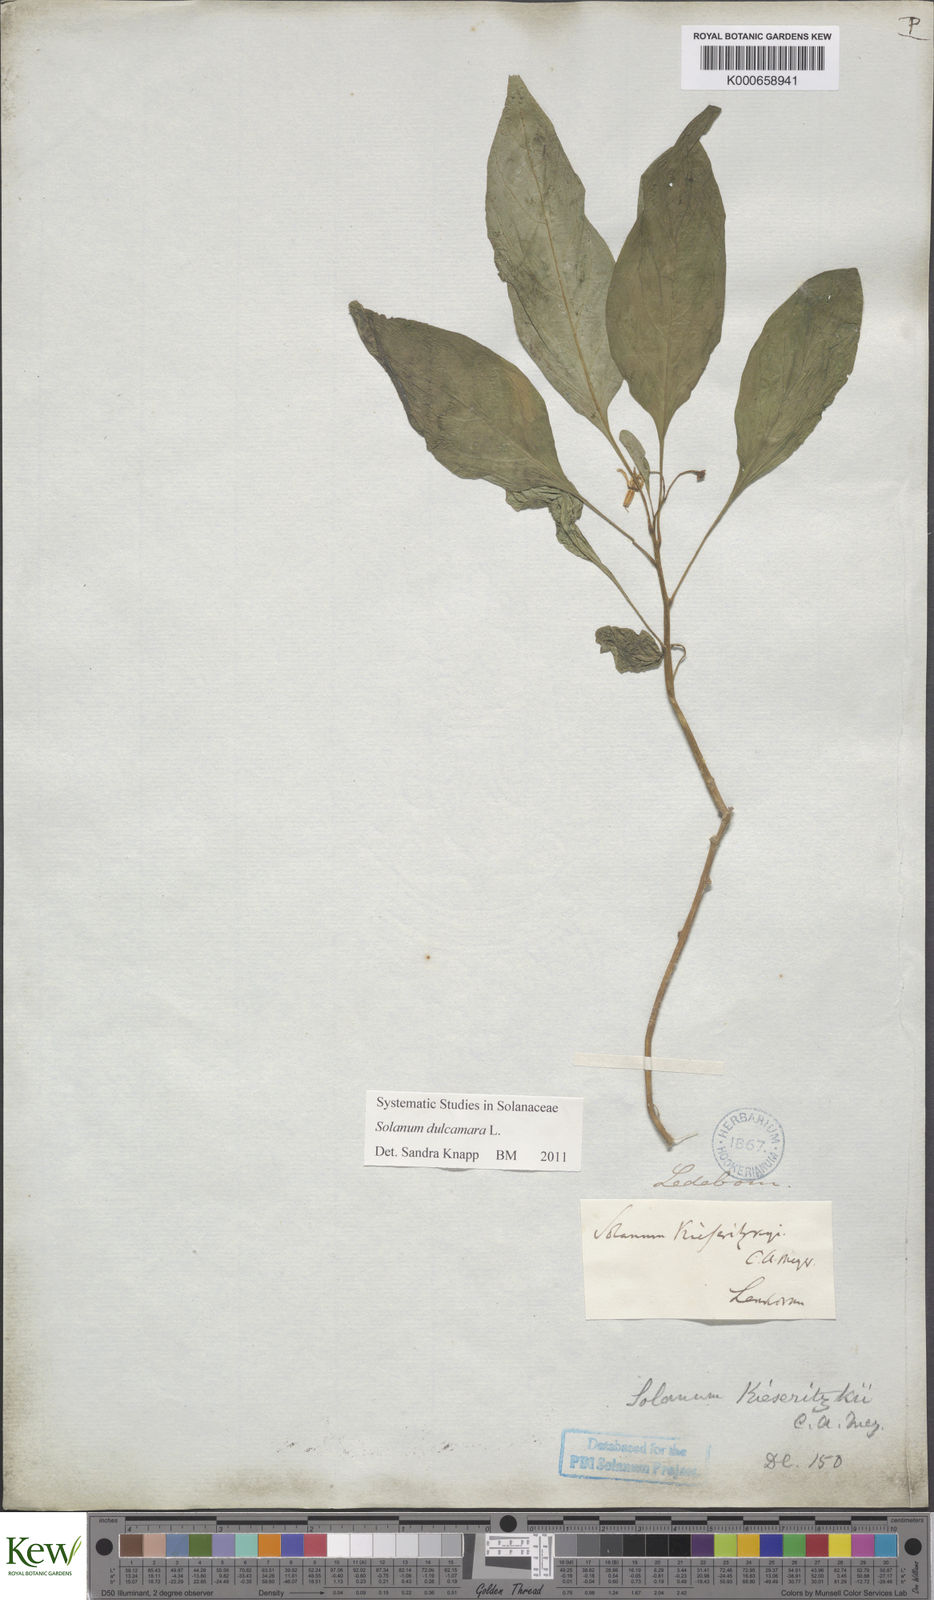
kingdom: Plantae
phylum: Tracheophyta
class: Magnoliopsida
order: Solanales
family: Solanaceae
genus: Solanum
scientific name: Solanum dulcamara
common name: Climbing nightshade
